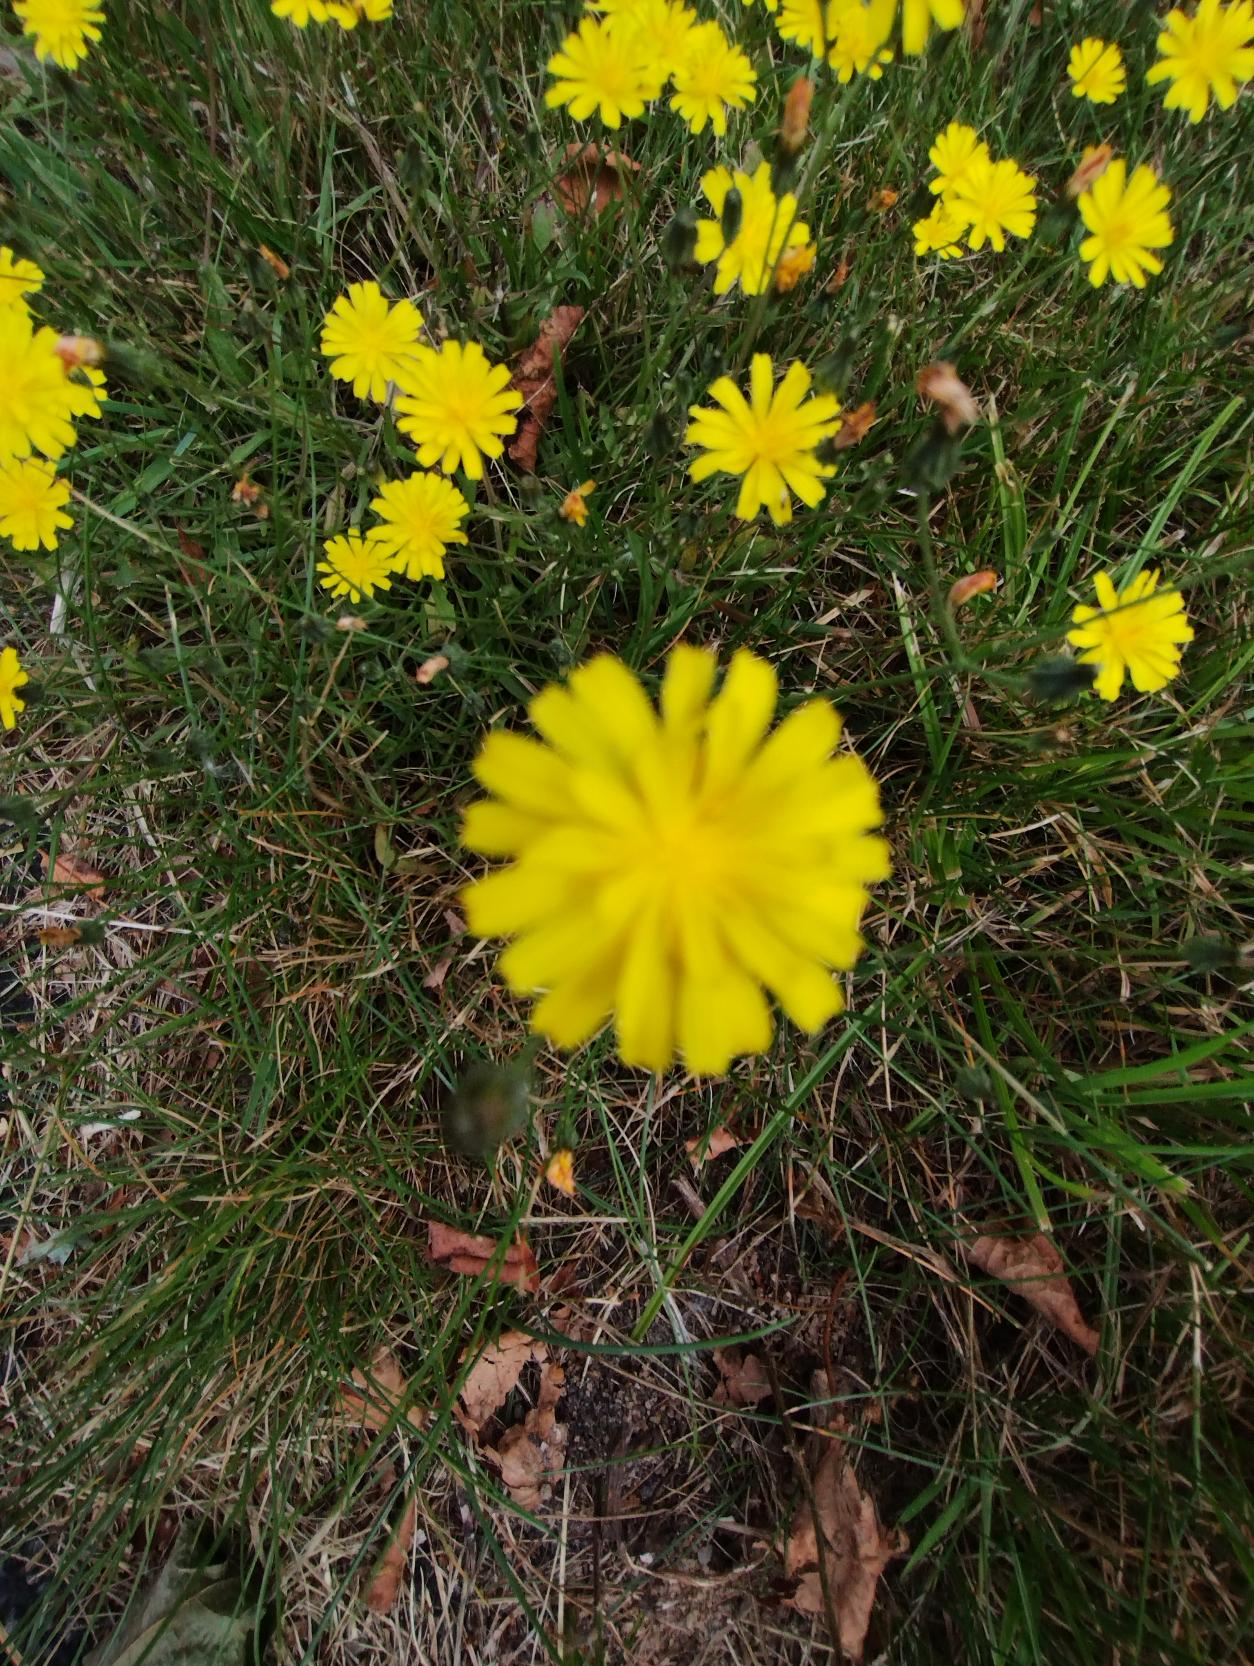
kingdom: Plantae
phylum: Tracheophyta
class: Magnoliopsida
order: Asterales
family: Asteraceae
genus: Crepis
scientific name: Crepis capillaris
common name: Grøn høgeskæg
